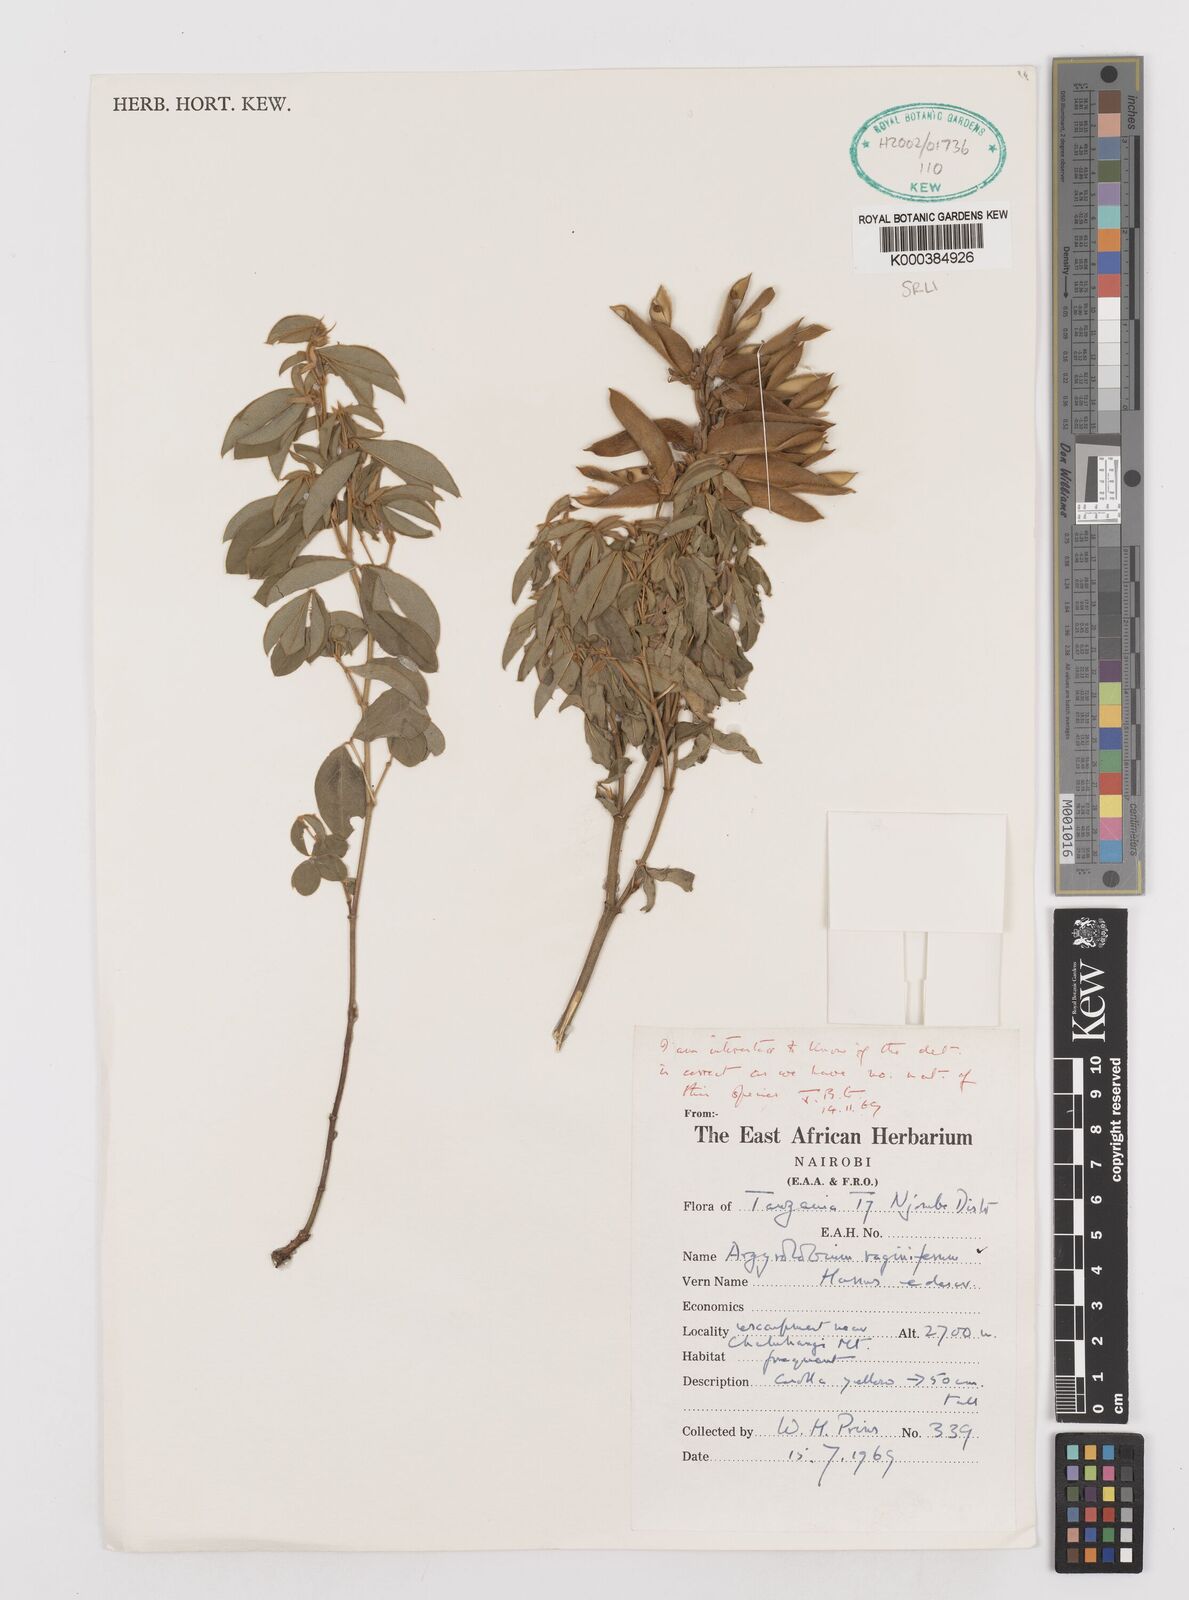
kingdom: Plantae
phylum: Tracheophyta
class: Magnoliopsida
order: Fabales
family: Fabaceae
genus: Argyrolobium
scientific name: Argyrolobium vaginiferum
